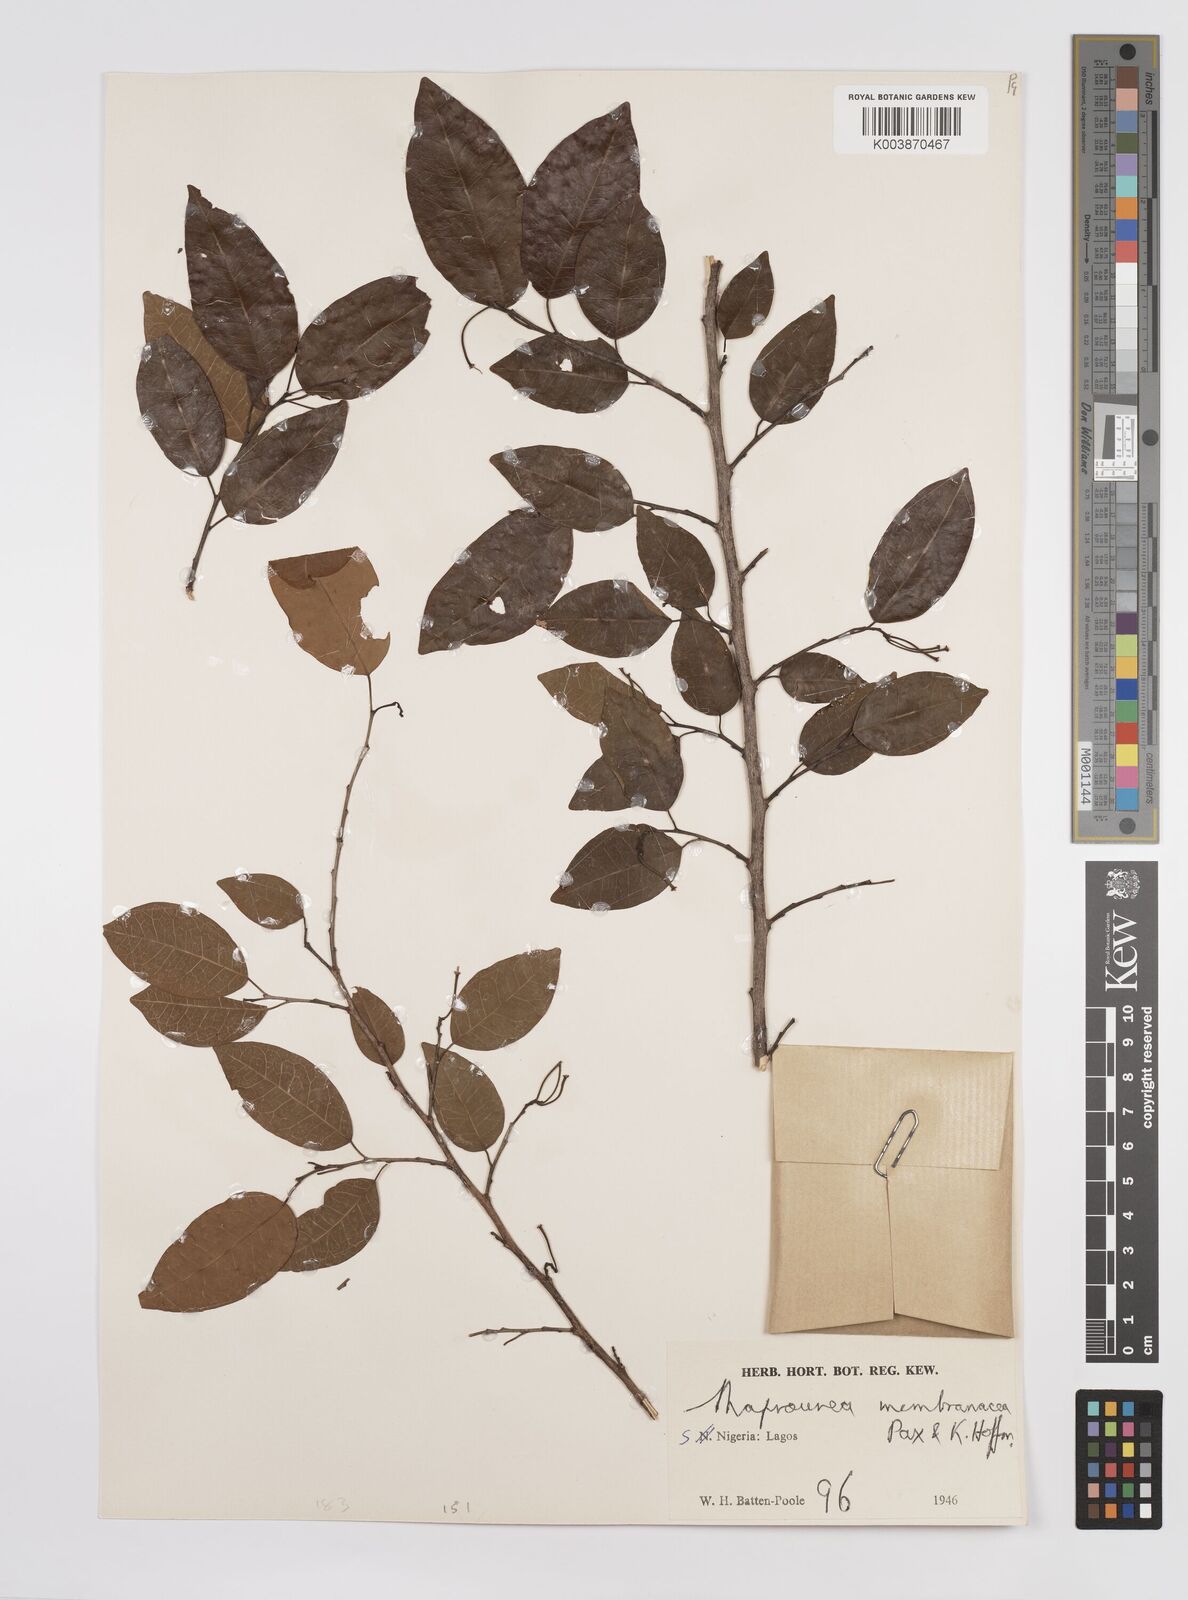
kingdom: Plantae
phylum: Tracheophyta
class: Magnoliopsida
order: Malpighiales
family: Euphorbiaceae
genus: Maprounea
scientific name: Maprounea membranacea
